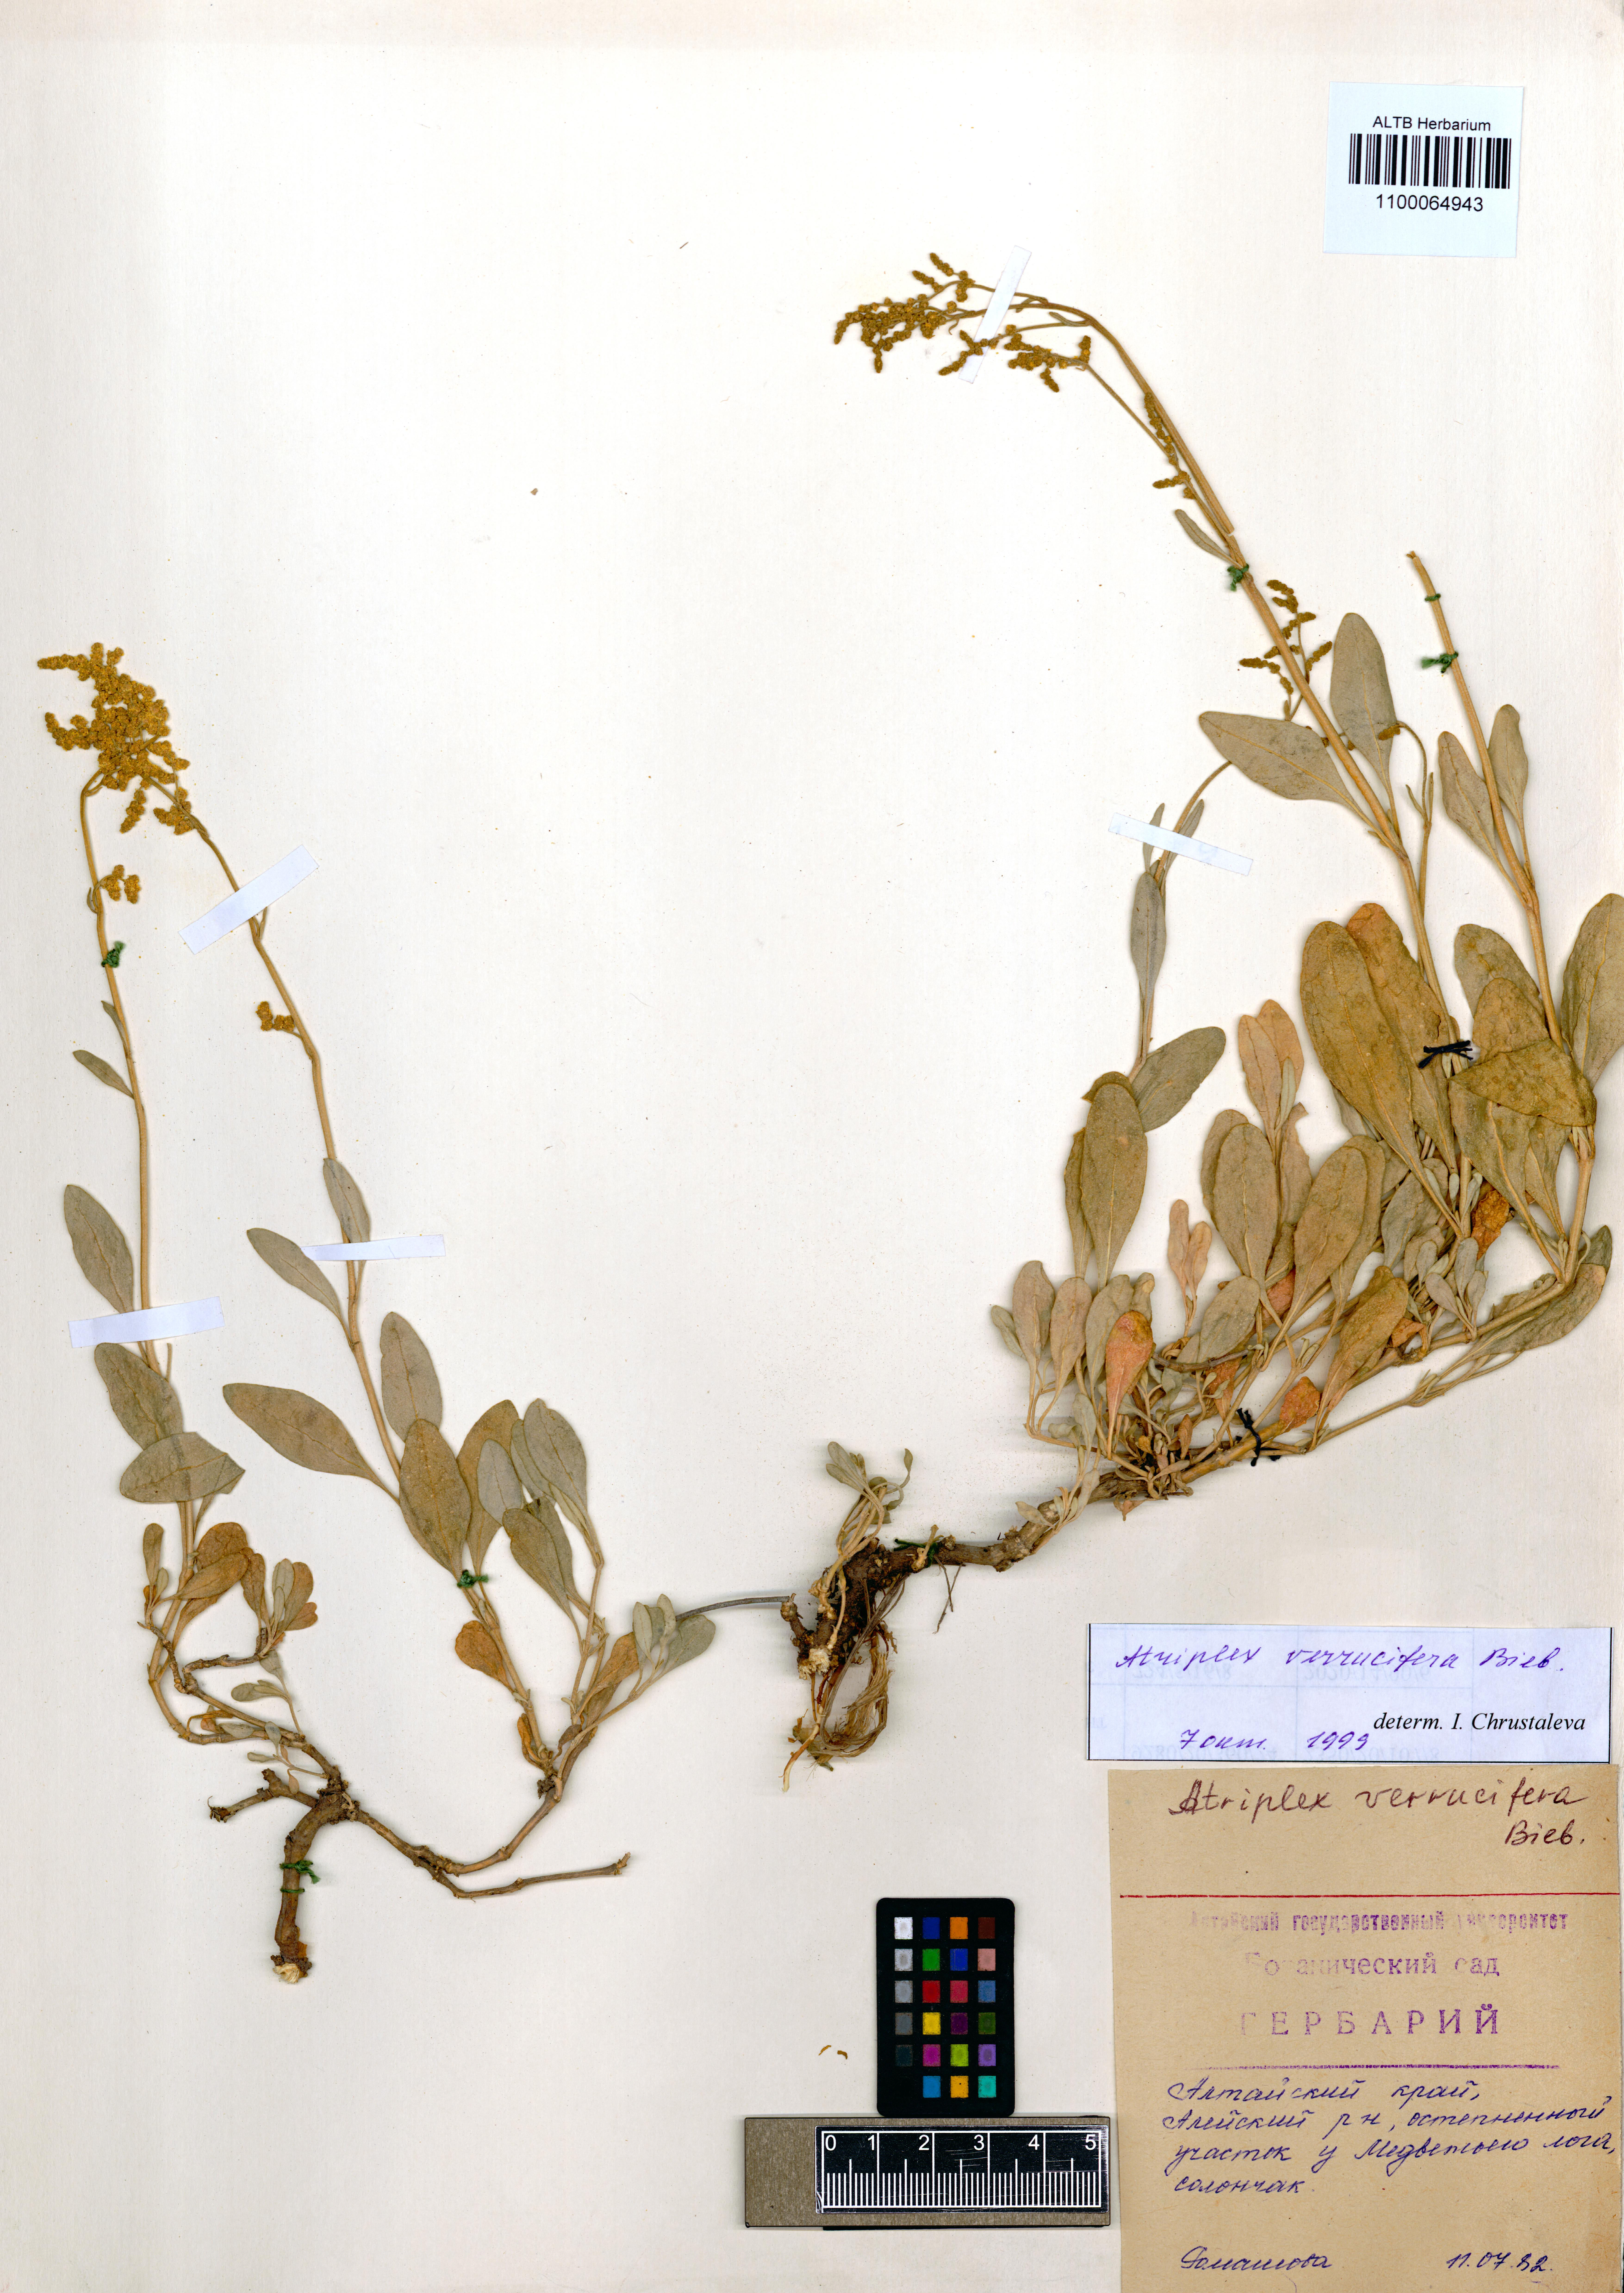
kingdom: Plantae
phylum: Tracheophyta
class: Magnoliopsida
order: Caryophyllales
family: Amaranthaceae
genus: Halimione
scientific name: Halimione verrucifera
